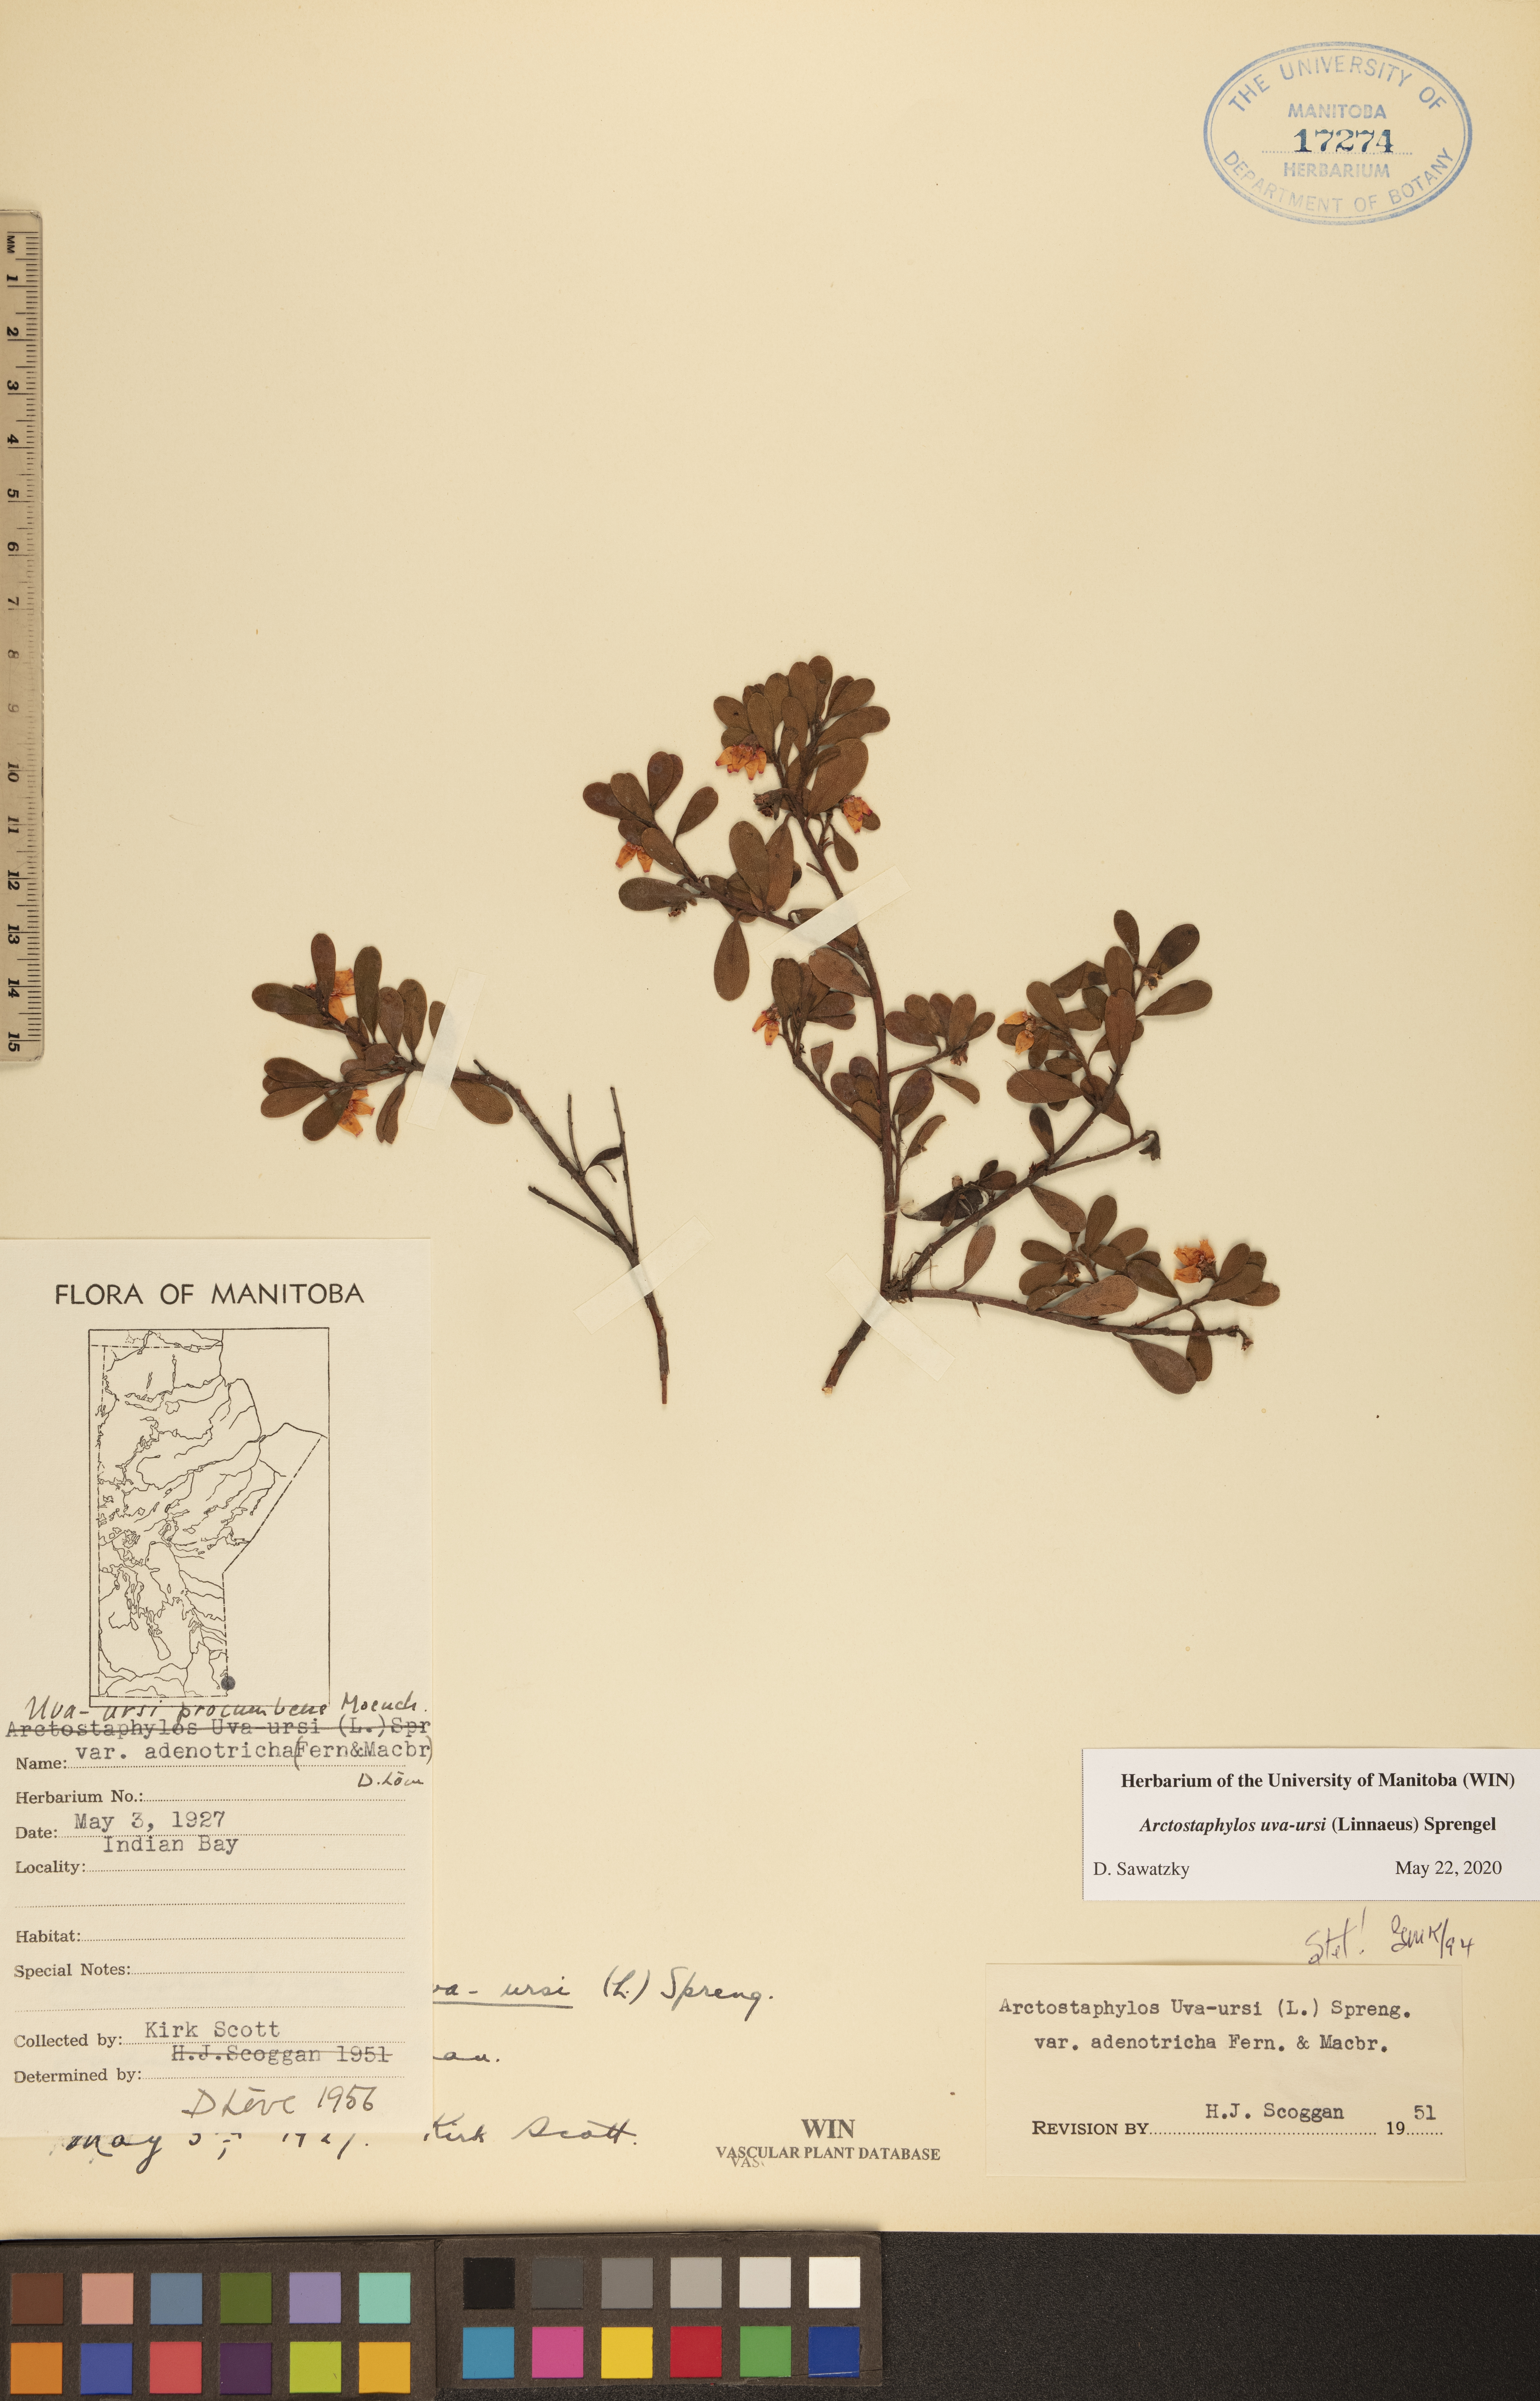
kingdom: Plantae
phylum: Tracheophyta
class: Magnoliopsida
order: Ericales
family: Ericaceae
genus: Arctostaphylos
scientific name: Arctostaphylos uva-ursi
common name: Bearberry
